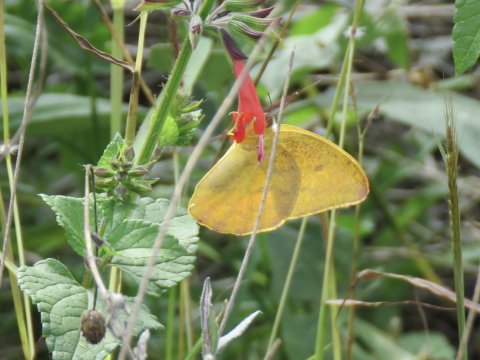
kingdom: Animalia
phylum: Arthropoda
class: Insecta
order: Lepidoptera
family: Pieridae
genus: Phoebis
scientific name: Phoebis agarithe
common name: Large Orange Sulphur
